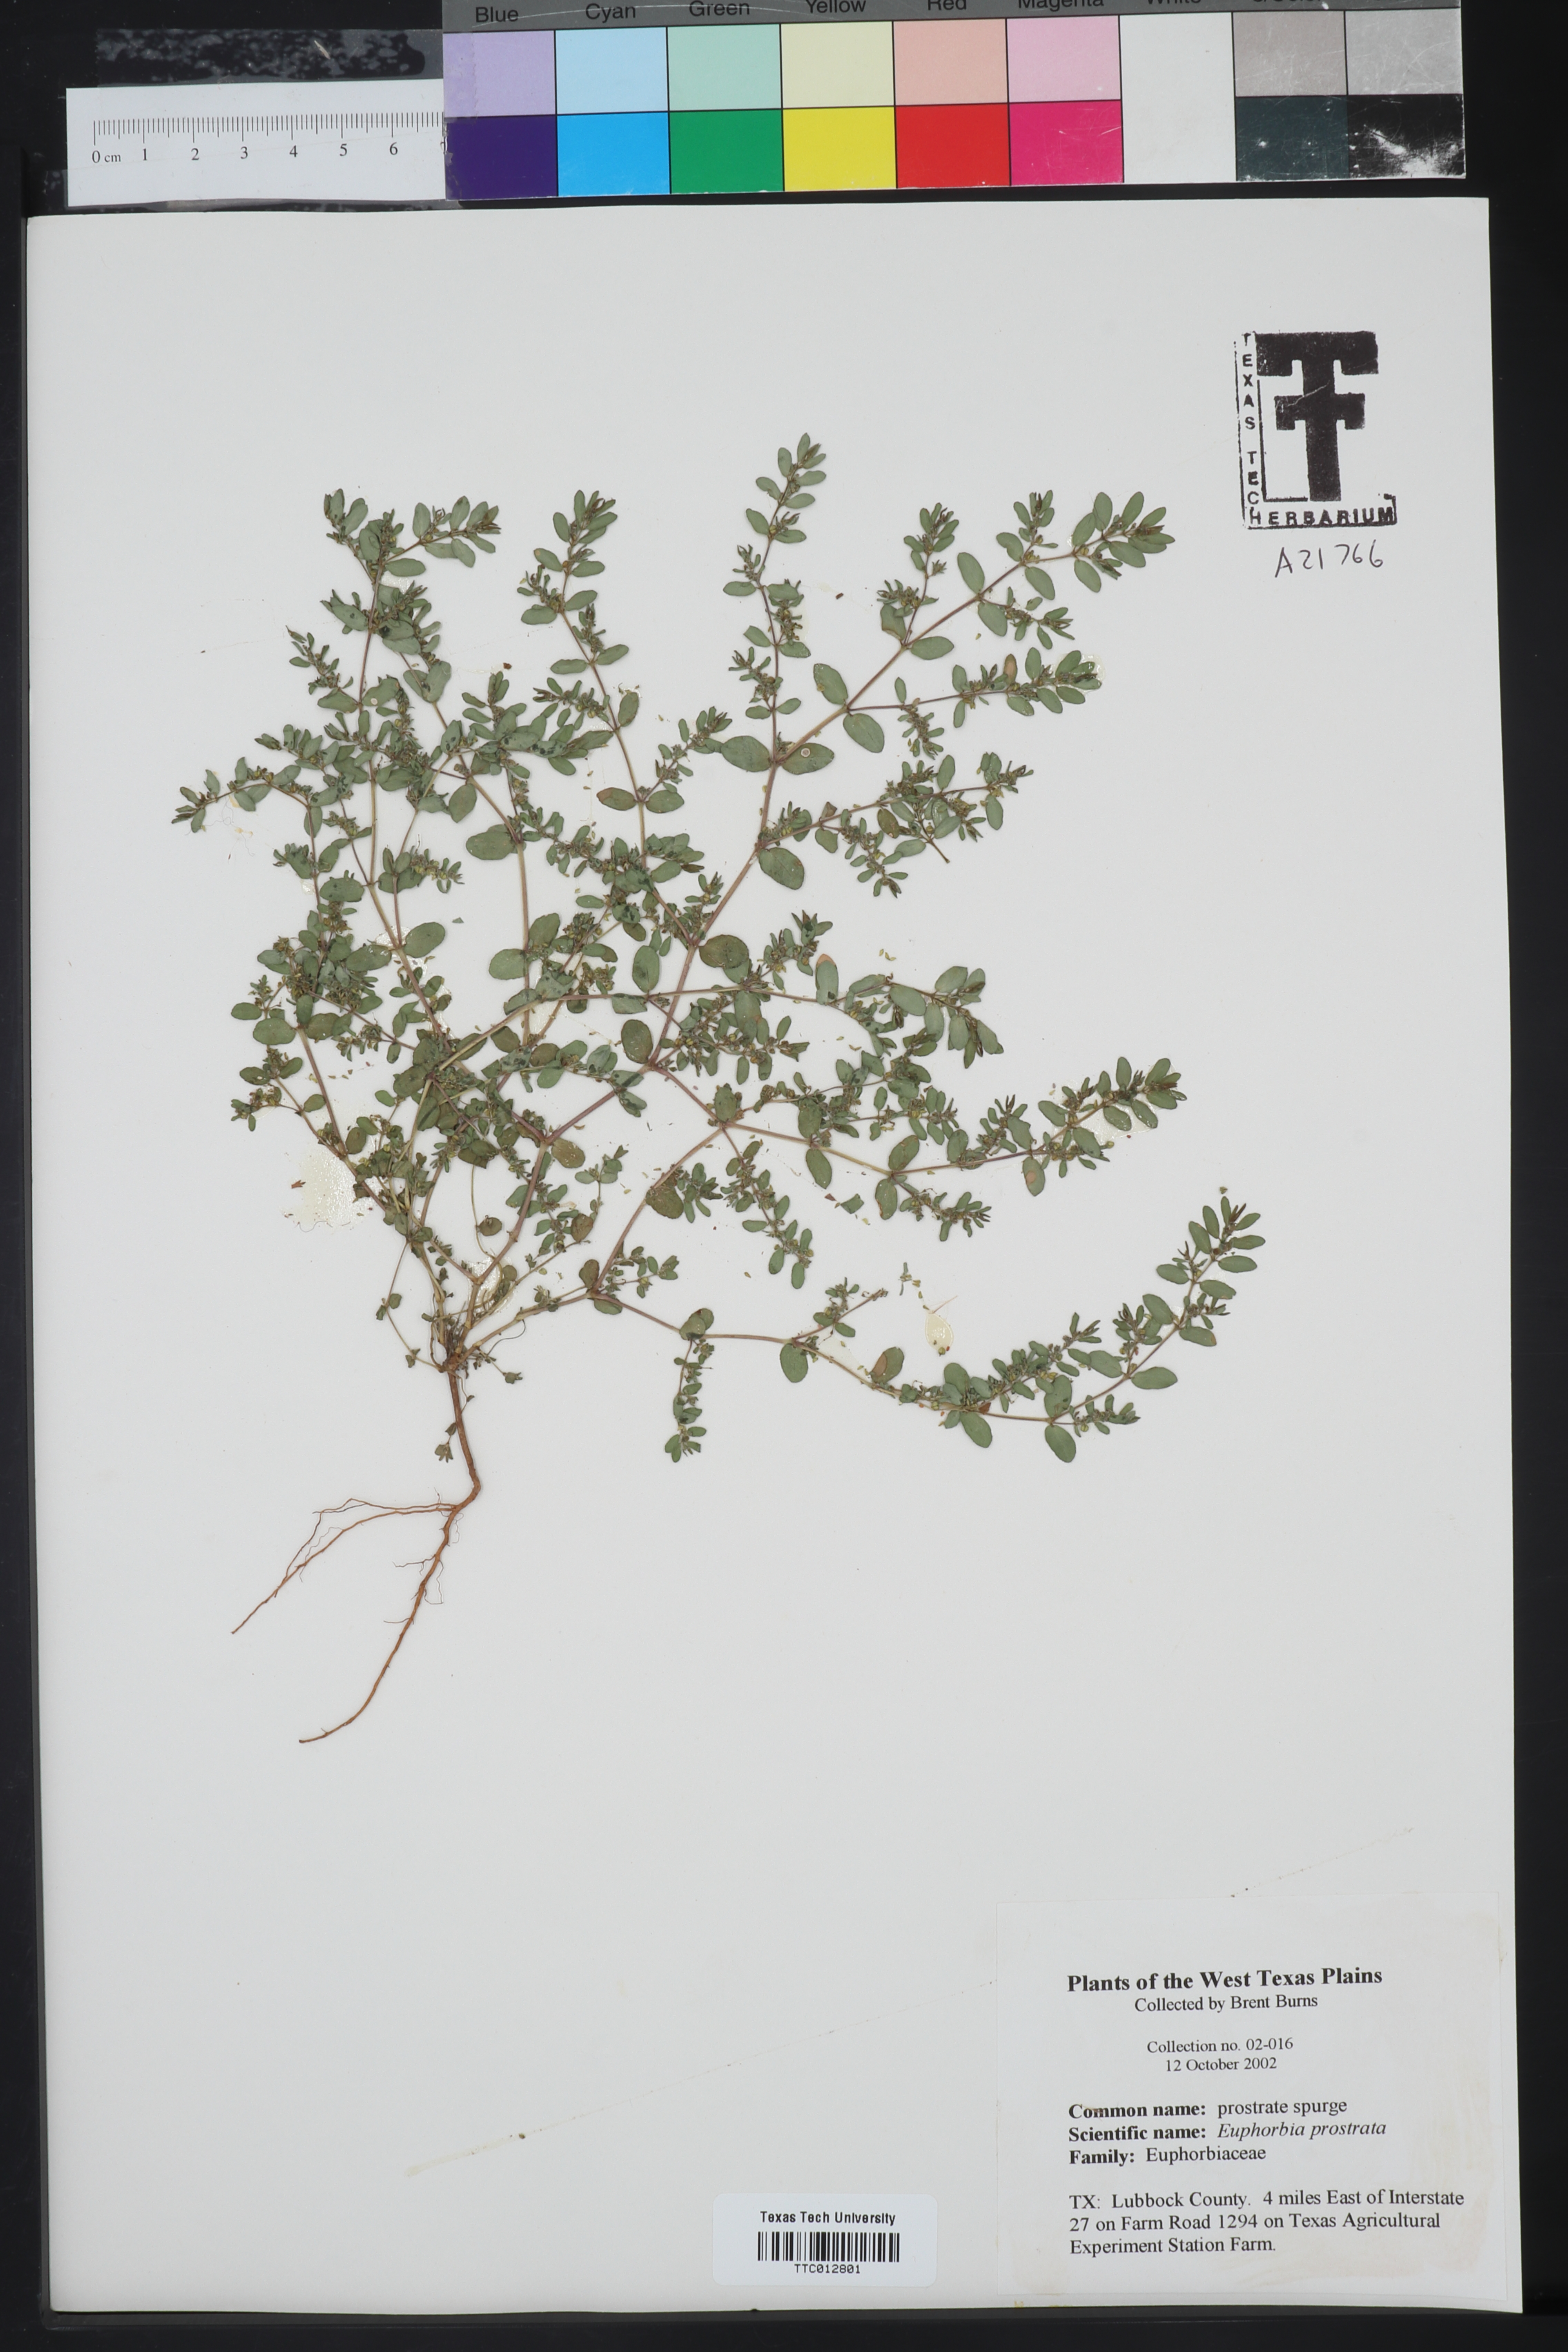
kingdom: Plantae
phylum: Tracheophyta
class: Magnoliopsida
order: Malpighiales
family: Euphorbiaceae
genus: Euphorbia
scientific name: Euphorbia prostrata
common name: Prostrate sandmat
